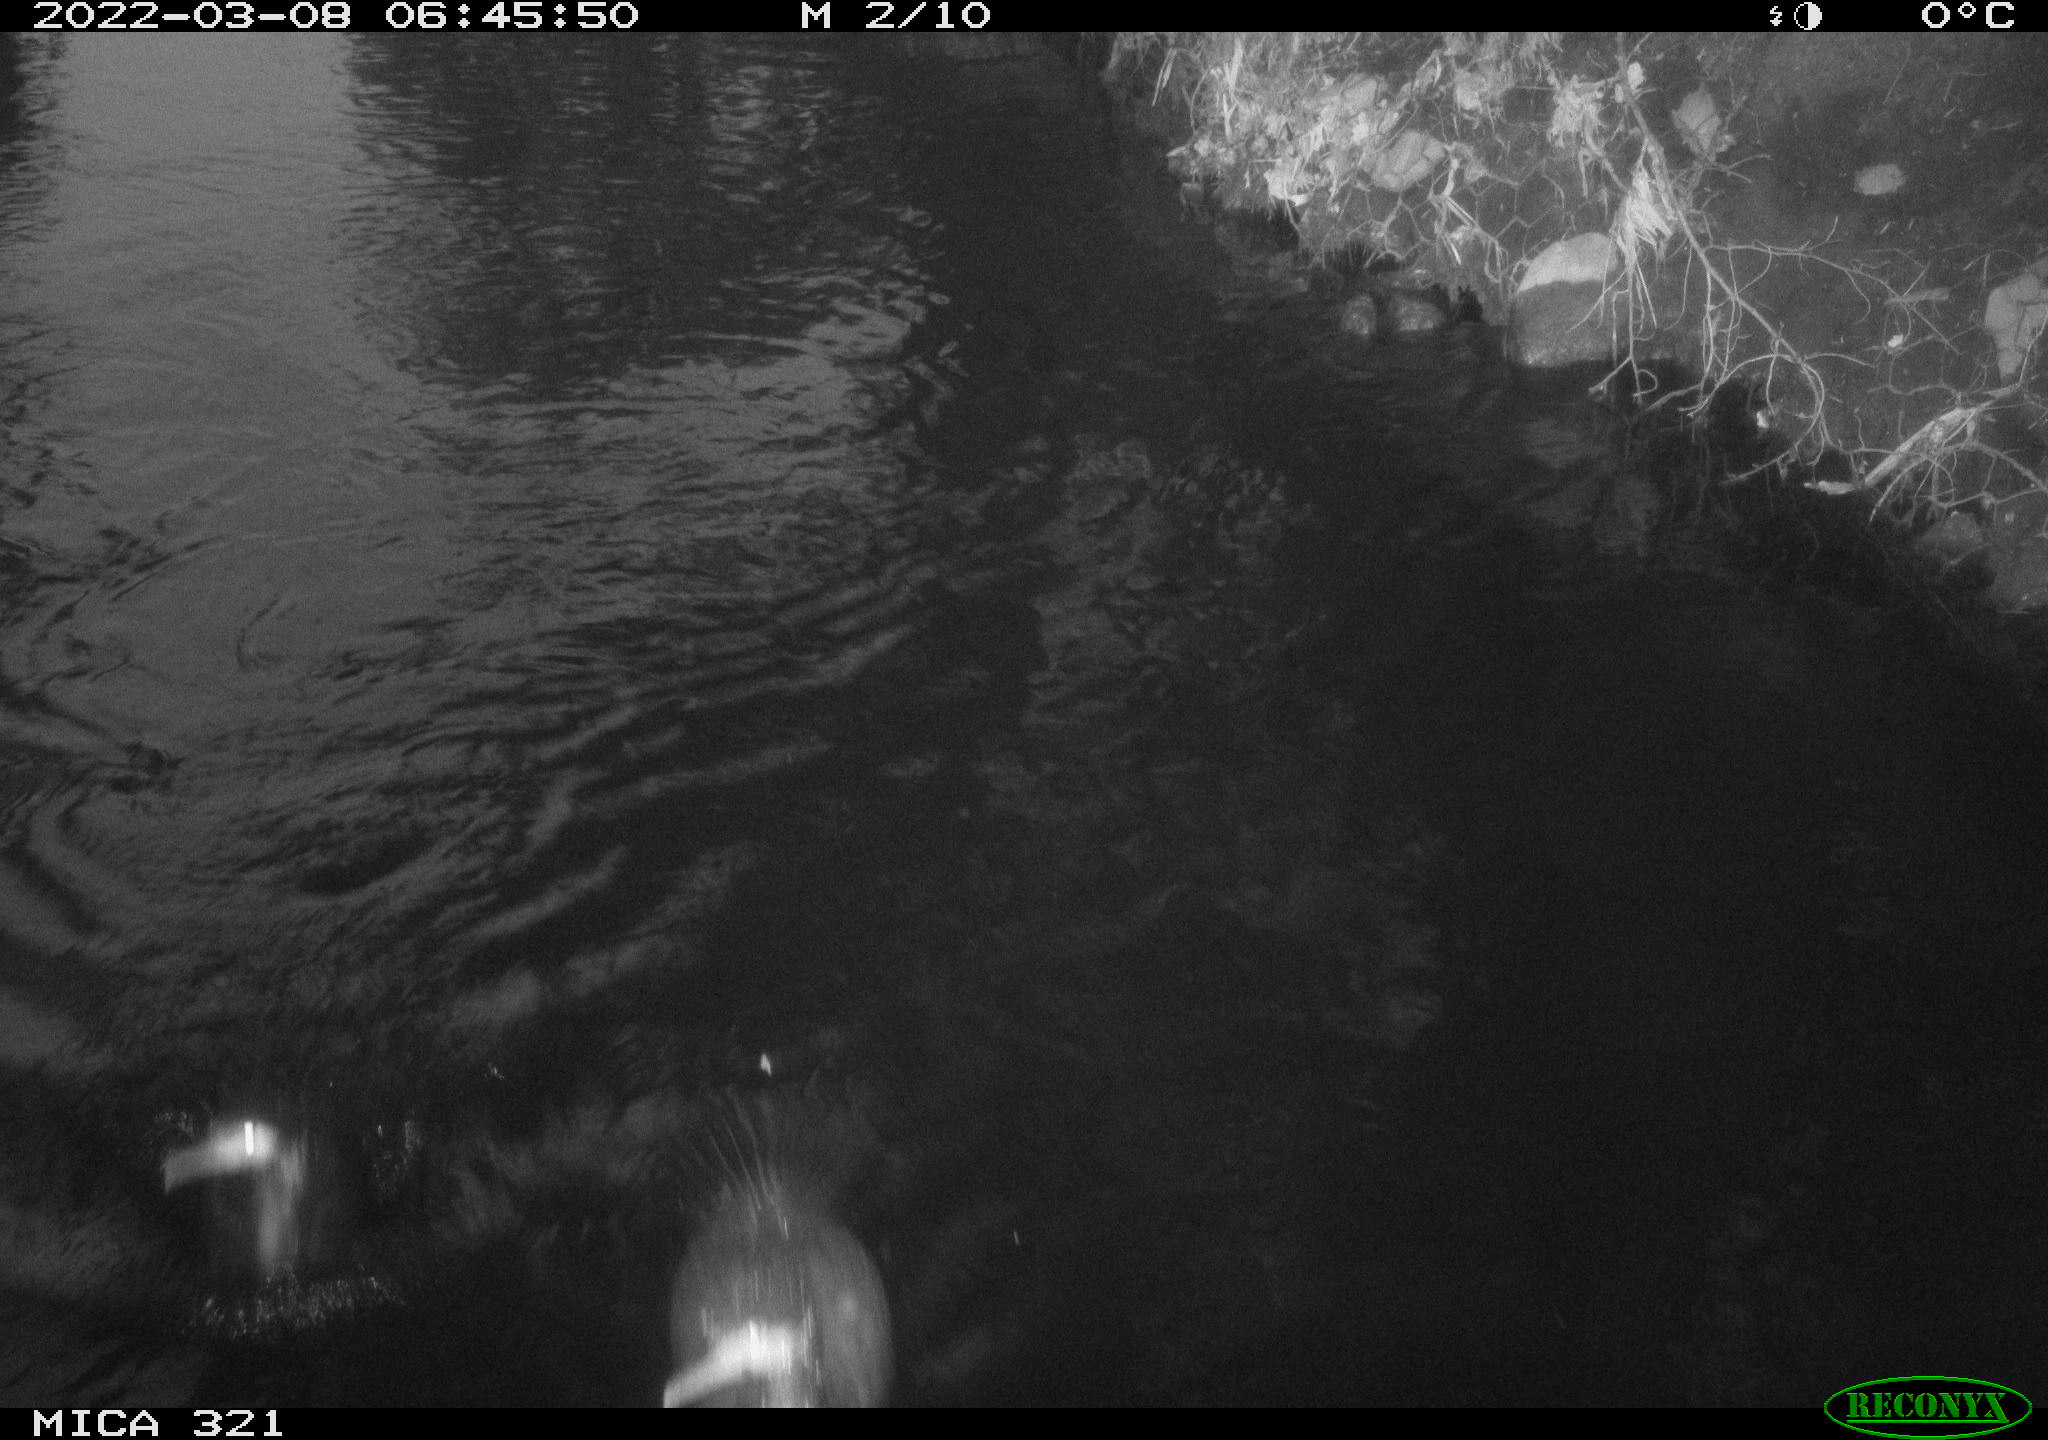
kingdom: Animalia
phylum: Chordata
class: Aves
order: Suliformes
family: Phalacrocoracidae
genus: Phalacrocorax
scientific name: Phalacrocorax carbo
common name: Great cormorant
